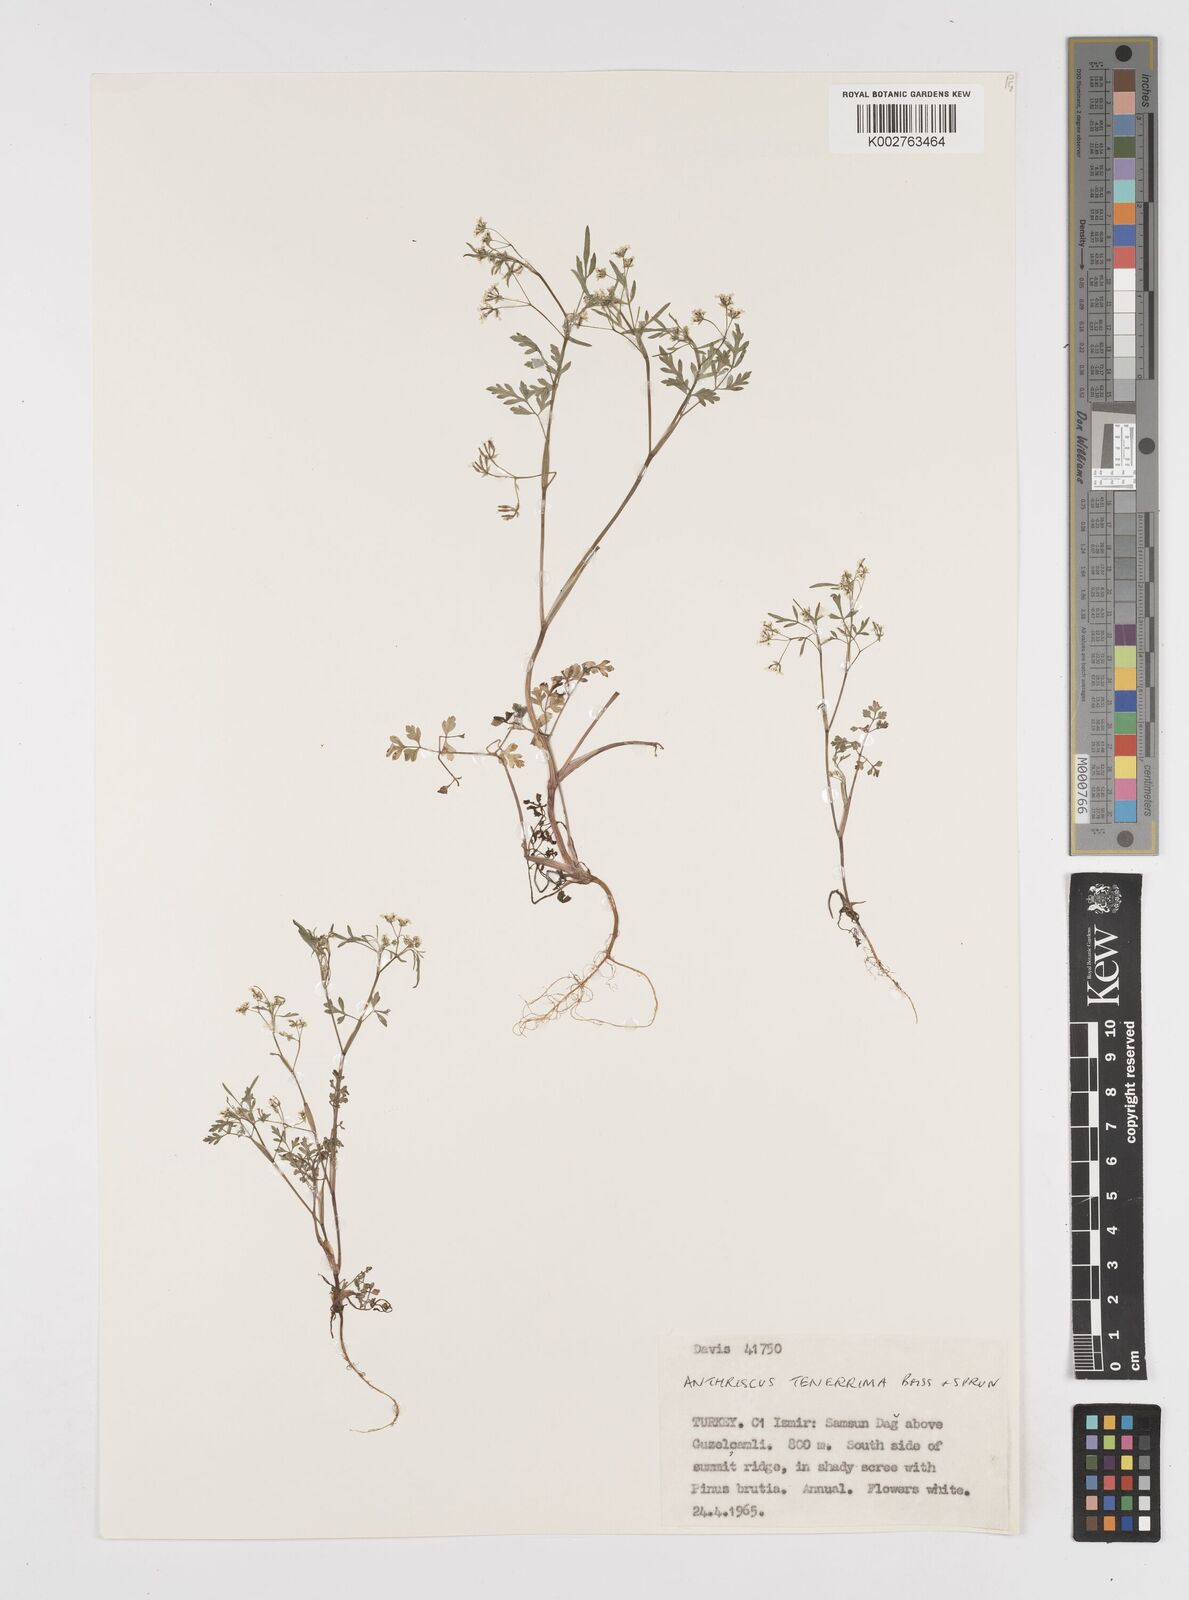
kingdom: Plantae
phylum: Tracheophyta
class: Magnoliopsida
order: Apiales
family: Apiaceae
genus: Anthriscus
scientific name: Anthriscus tenerrima
